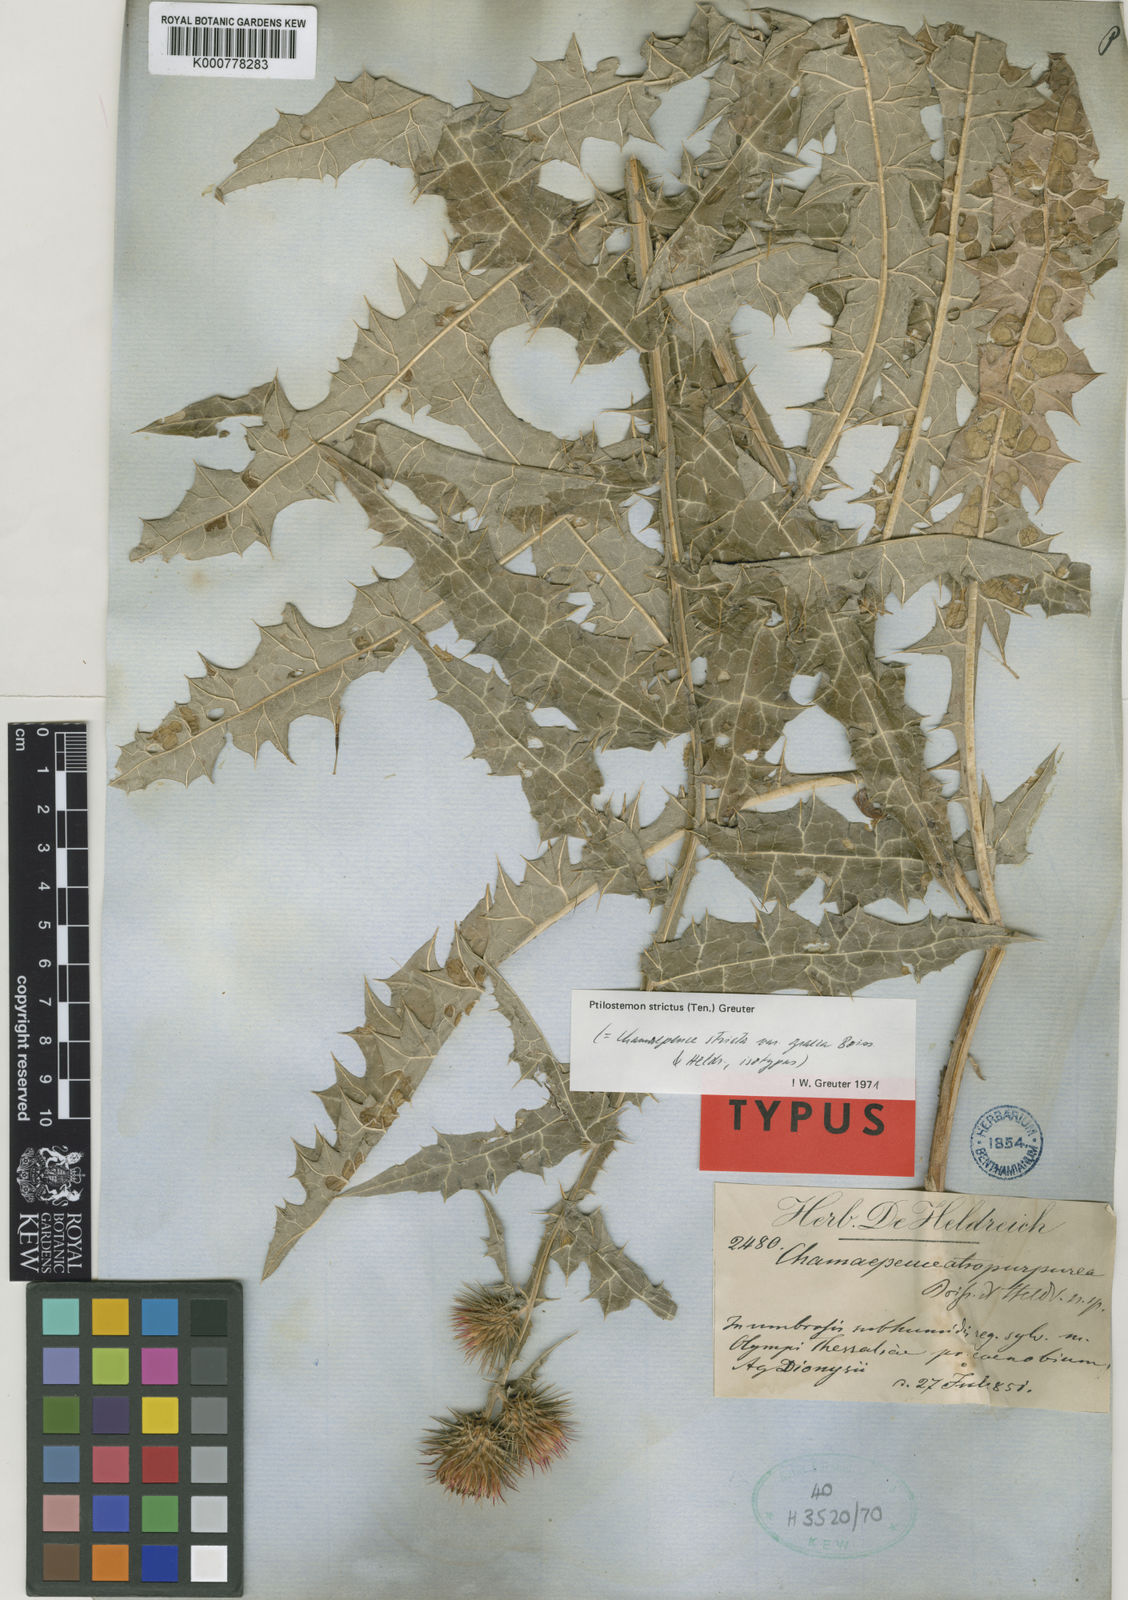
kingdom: Plantae
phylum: Tracheophyta
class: Magnoliopsida
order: Asterales
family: Asteraceae
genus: Ptilostemon
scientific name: Ptilostemon strictus
